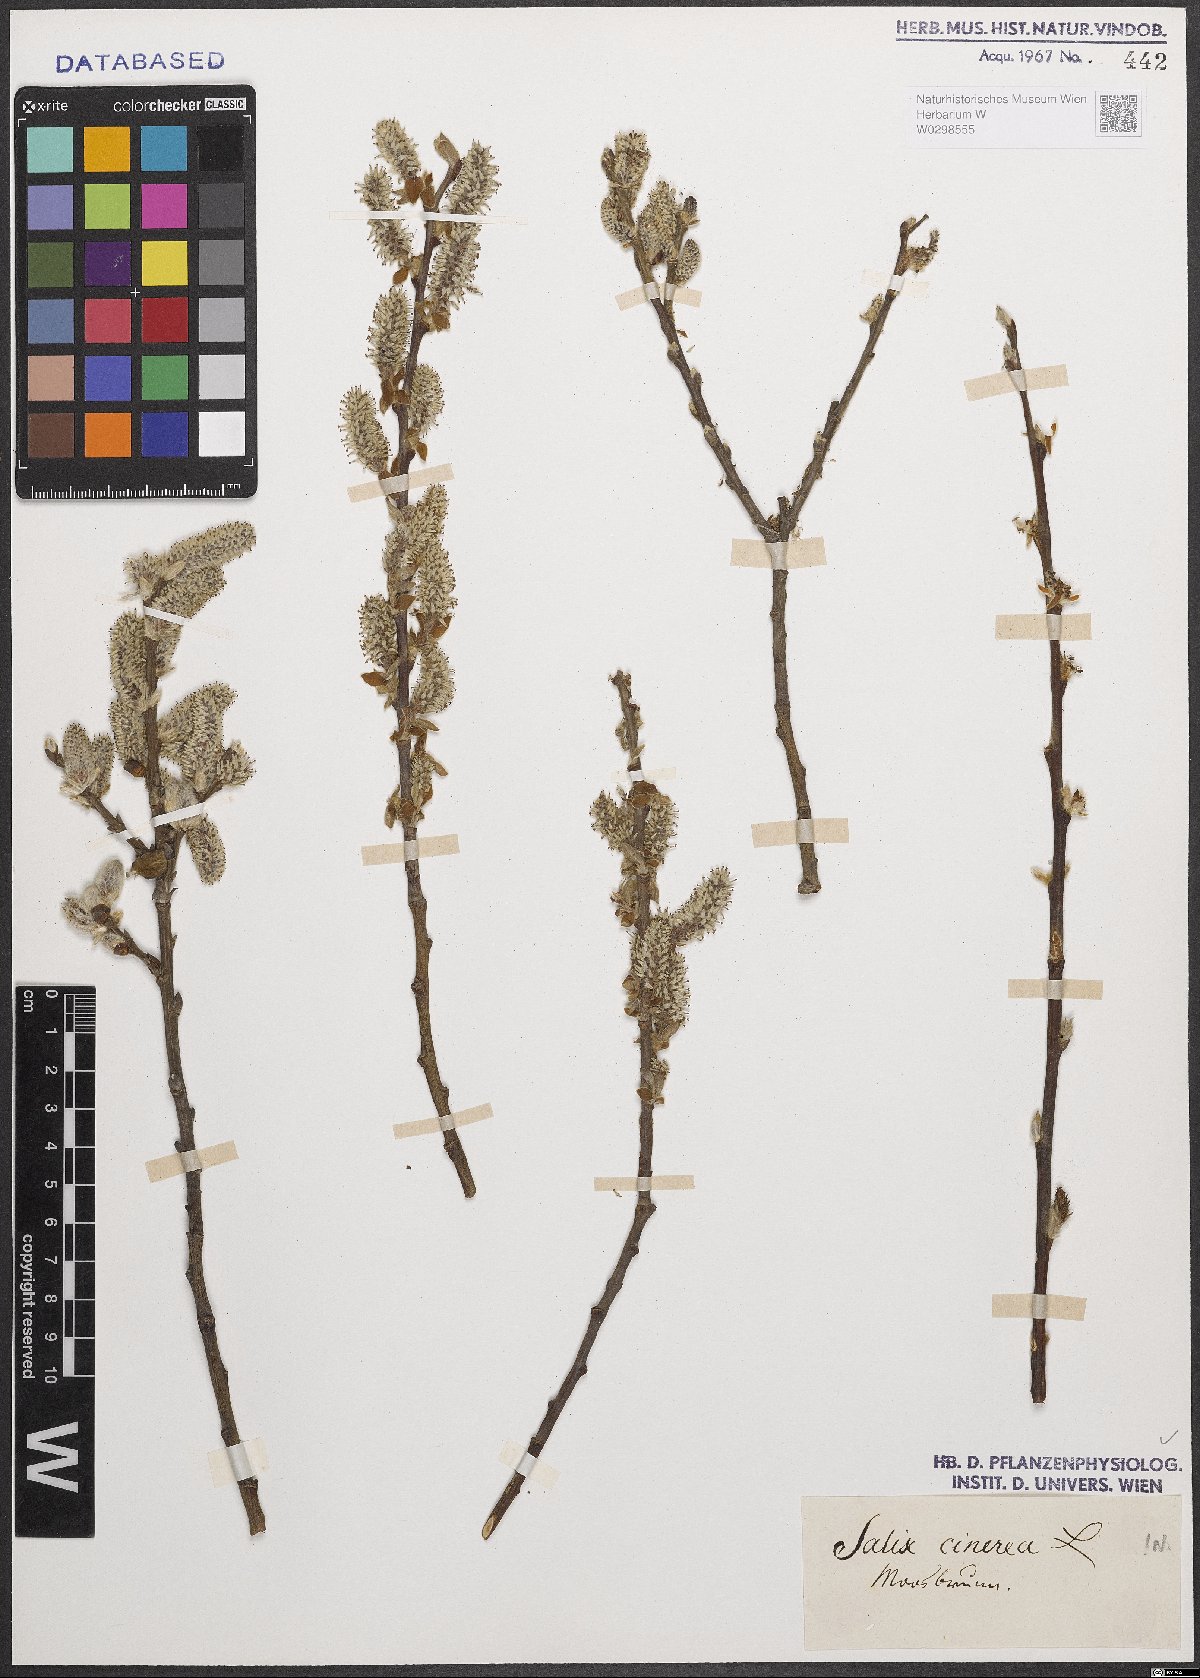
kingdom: Plantae
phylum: Tracheophyta
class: Magnoliopsida
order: Malpighiales
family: Salicaceae
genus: Salix
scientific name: Salix cinerea
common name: Common sallow
